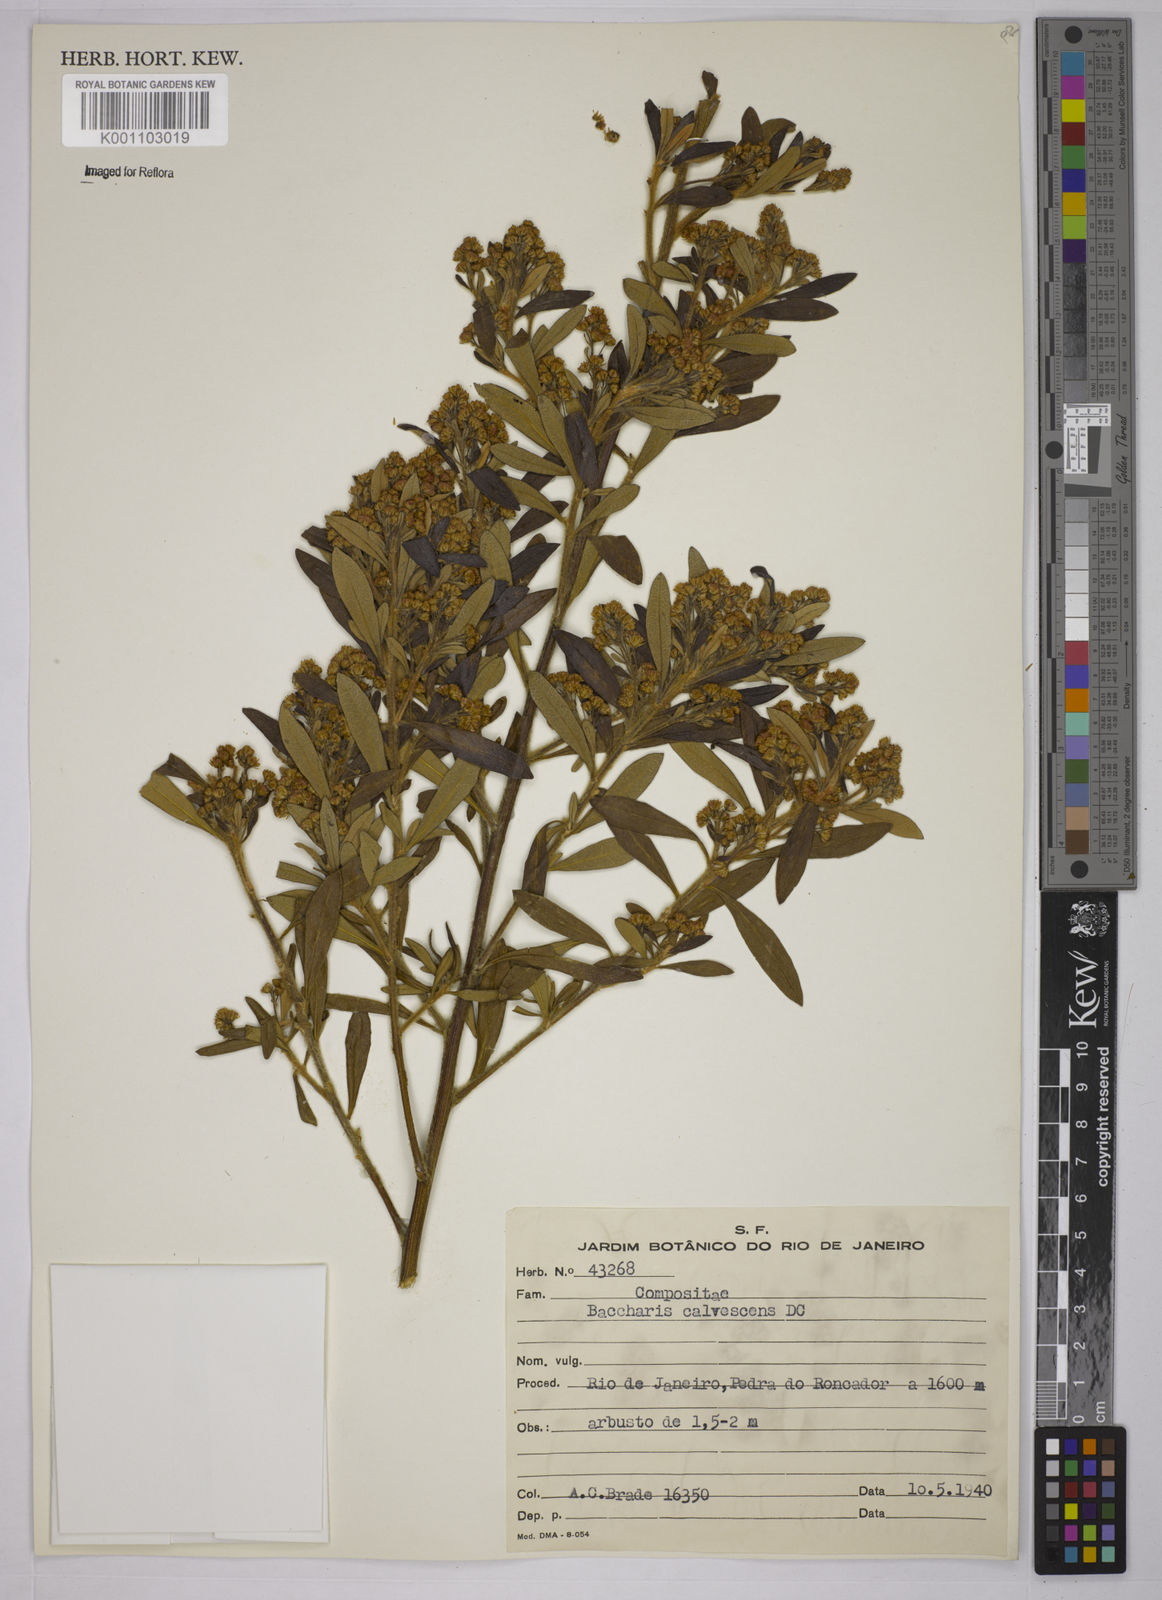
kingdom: Plantae
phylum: Tracheophyta
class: Magnoliopsida
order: Asterales
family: Asteraceae
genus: Baccharis
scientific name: Baccharis calvescens
